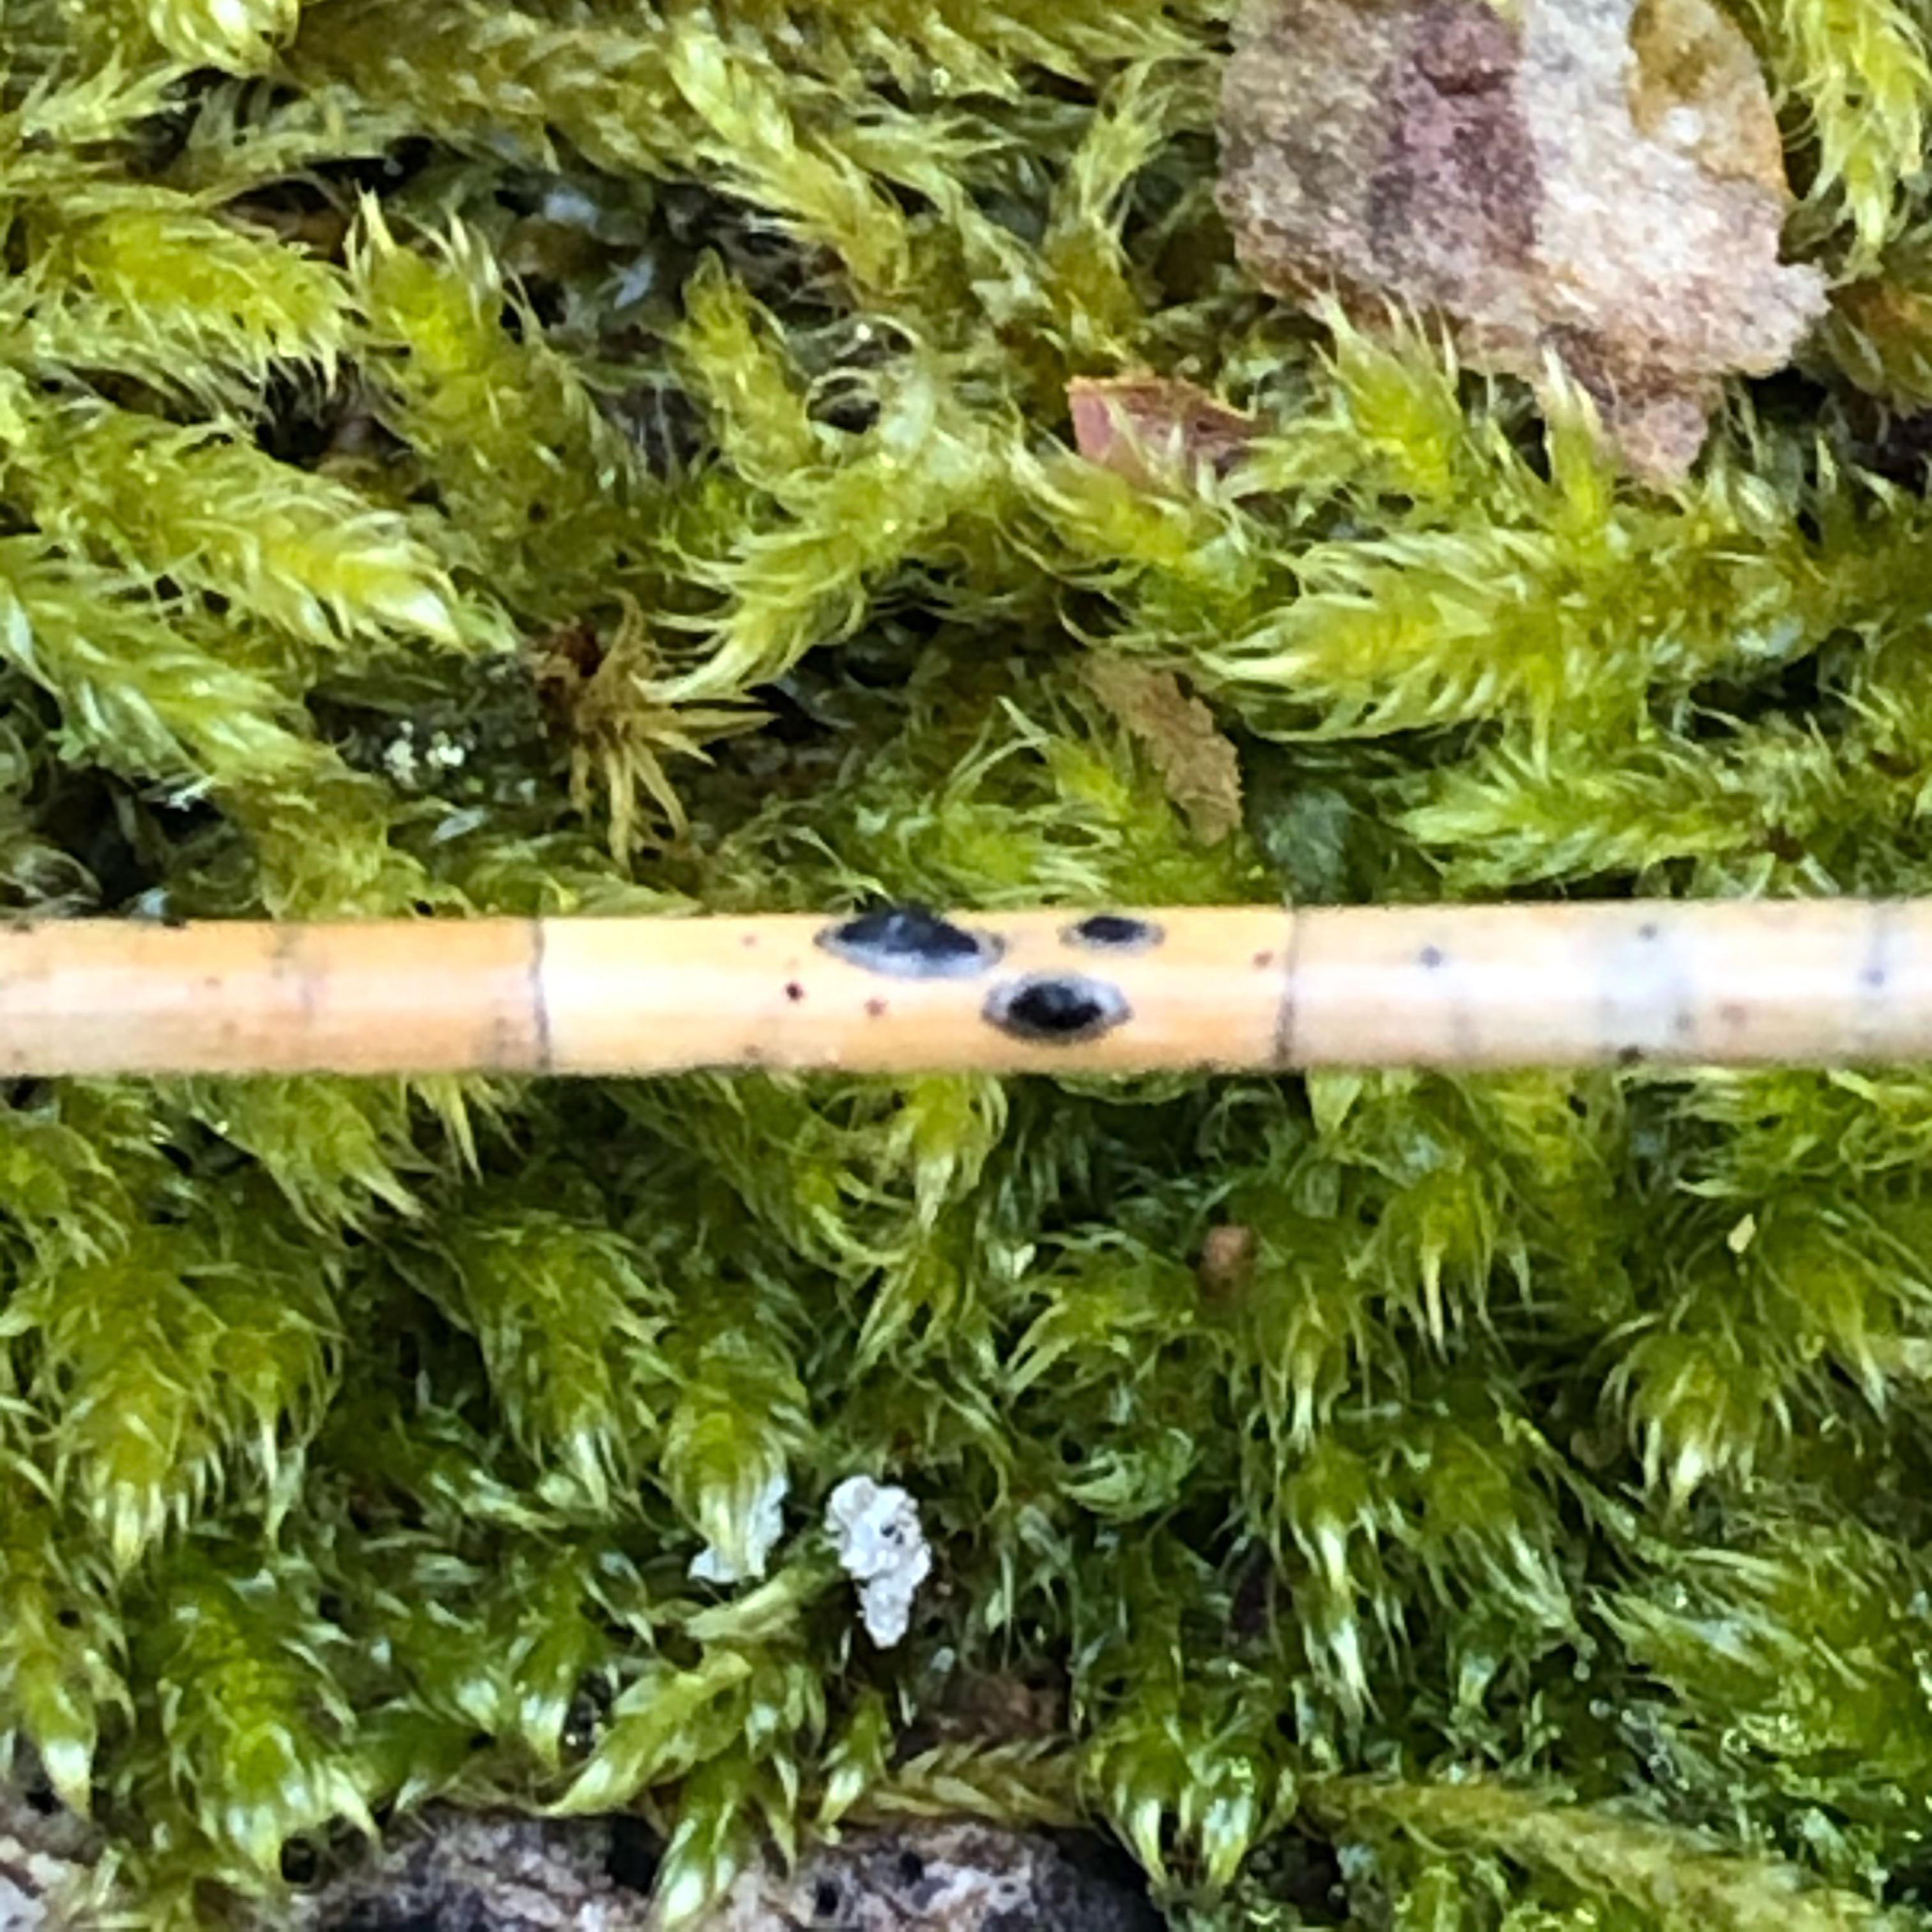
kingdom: Fungi
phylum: Ascomycota
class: Leotiomycetes
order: Rhytismatales
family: Rhytismataceae
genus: Lophodermium
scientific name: Lophodermium pinastri
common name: fyrre-fureplet
